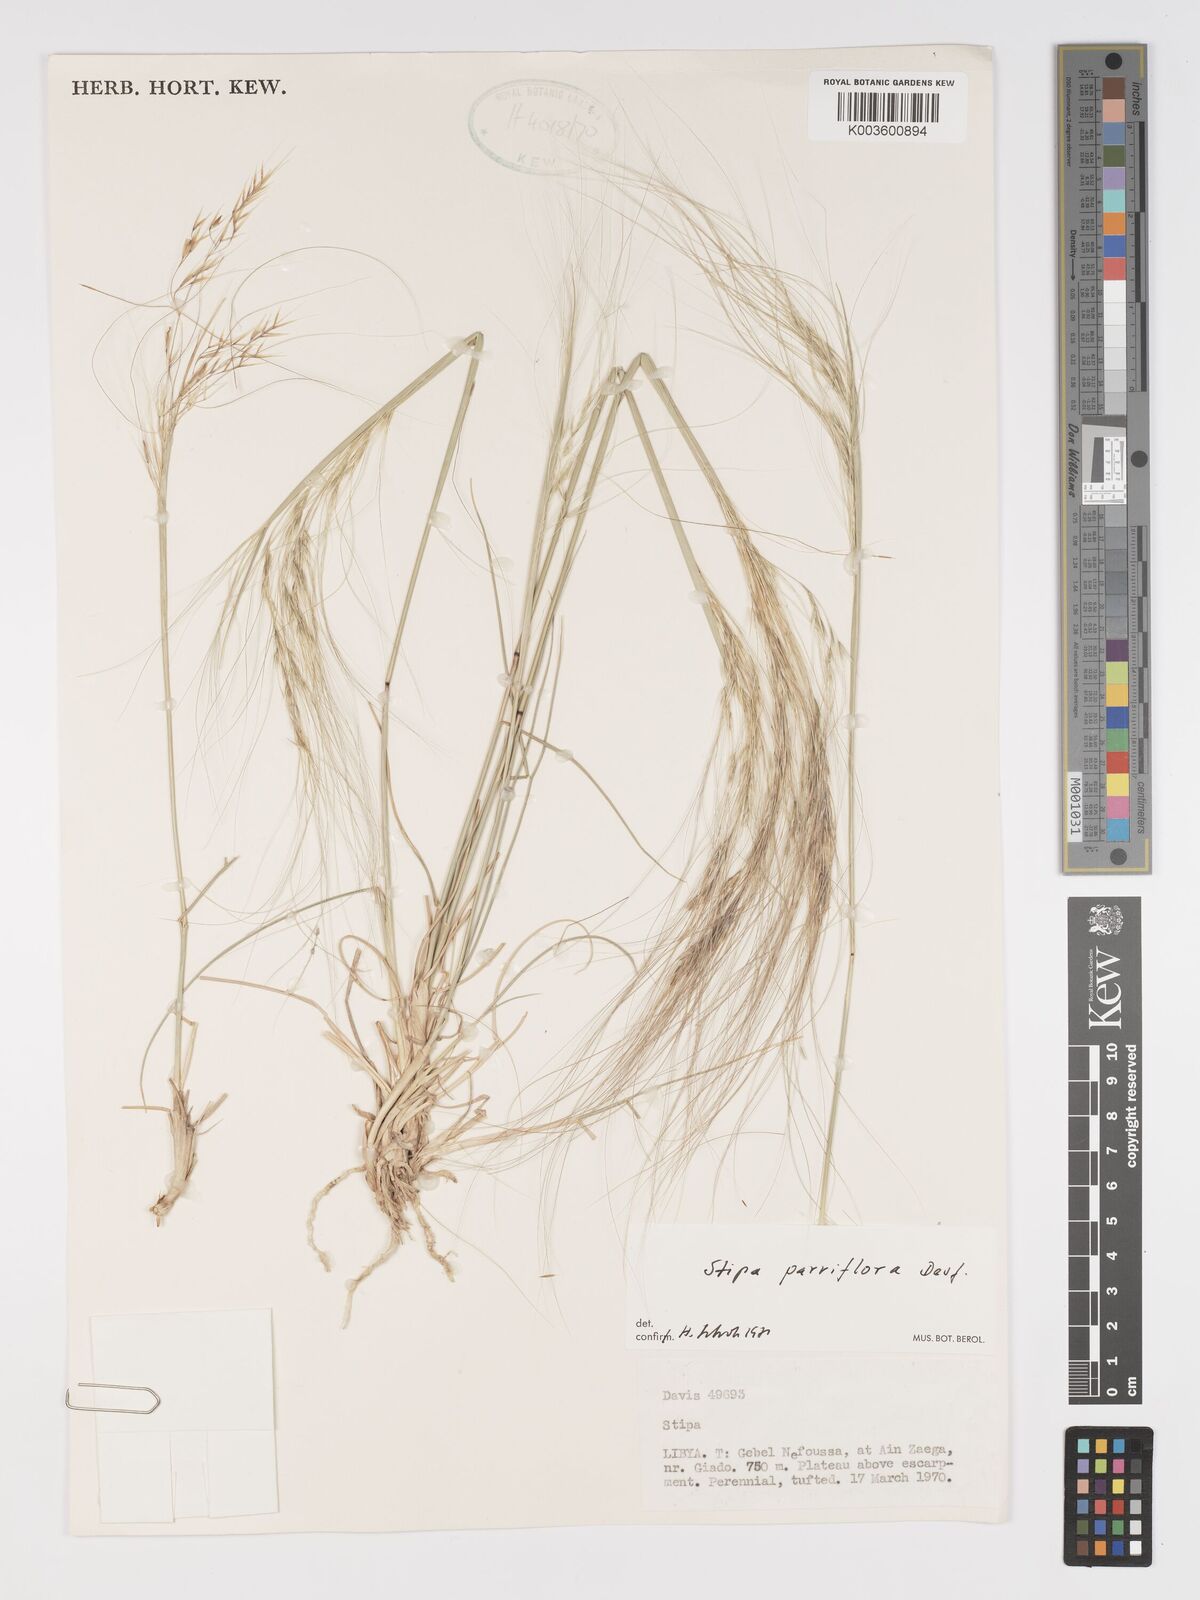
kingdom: Plantae
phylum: Tracheophyta
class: Liliopsida
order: Poales
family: Poaceae
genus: Achnatherum
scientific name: Achnatherum parviflorum
